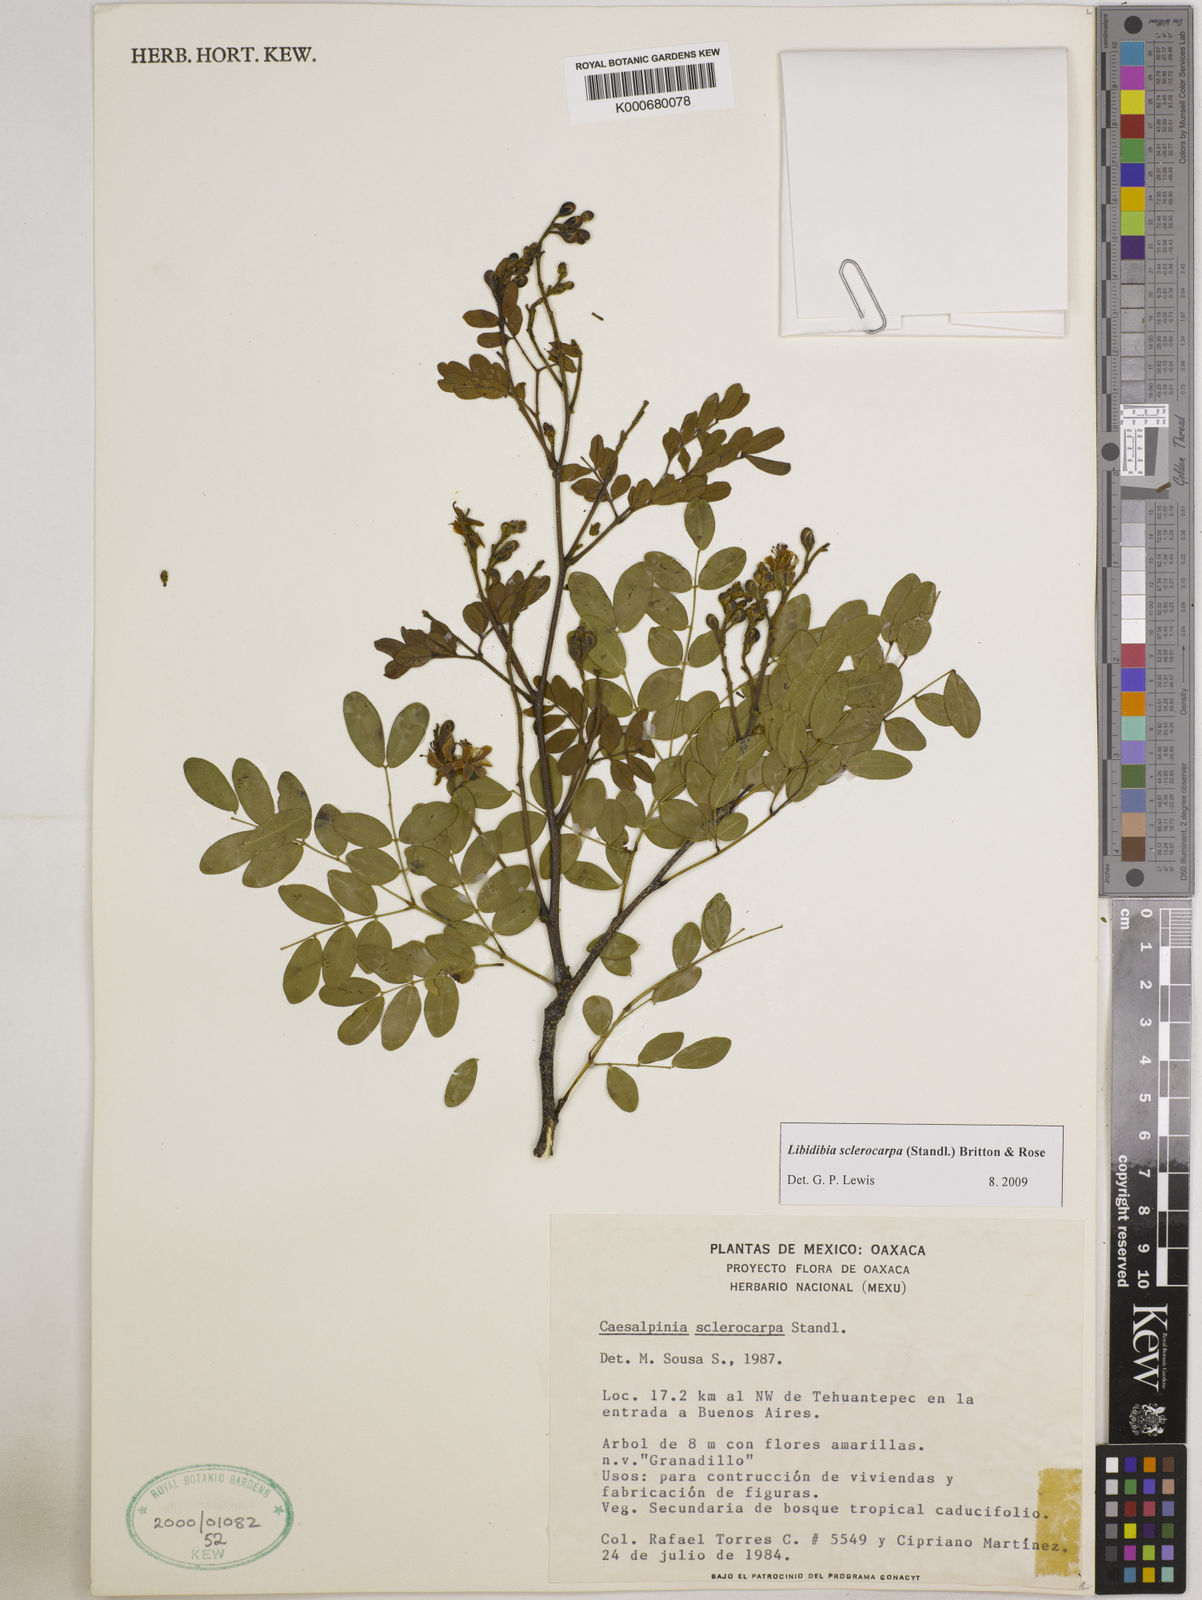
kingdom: Plantae
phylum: Tracheophyta
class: Magnoliopsida
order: Fabales
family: Fabaceae
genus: Libidibia
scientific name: Libidibia sclerocarpa
